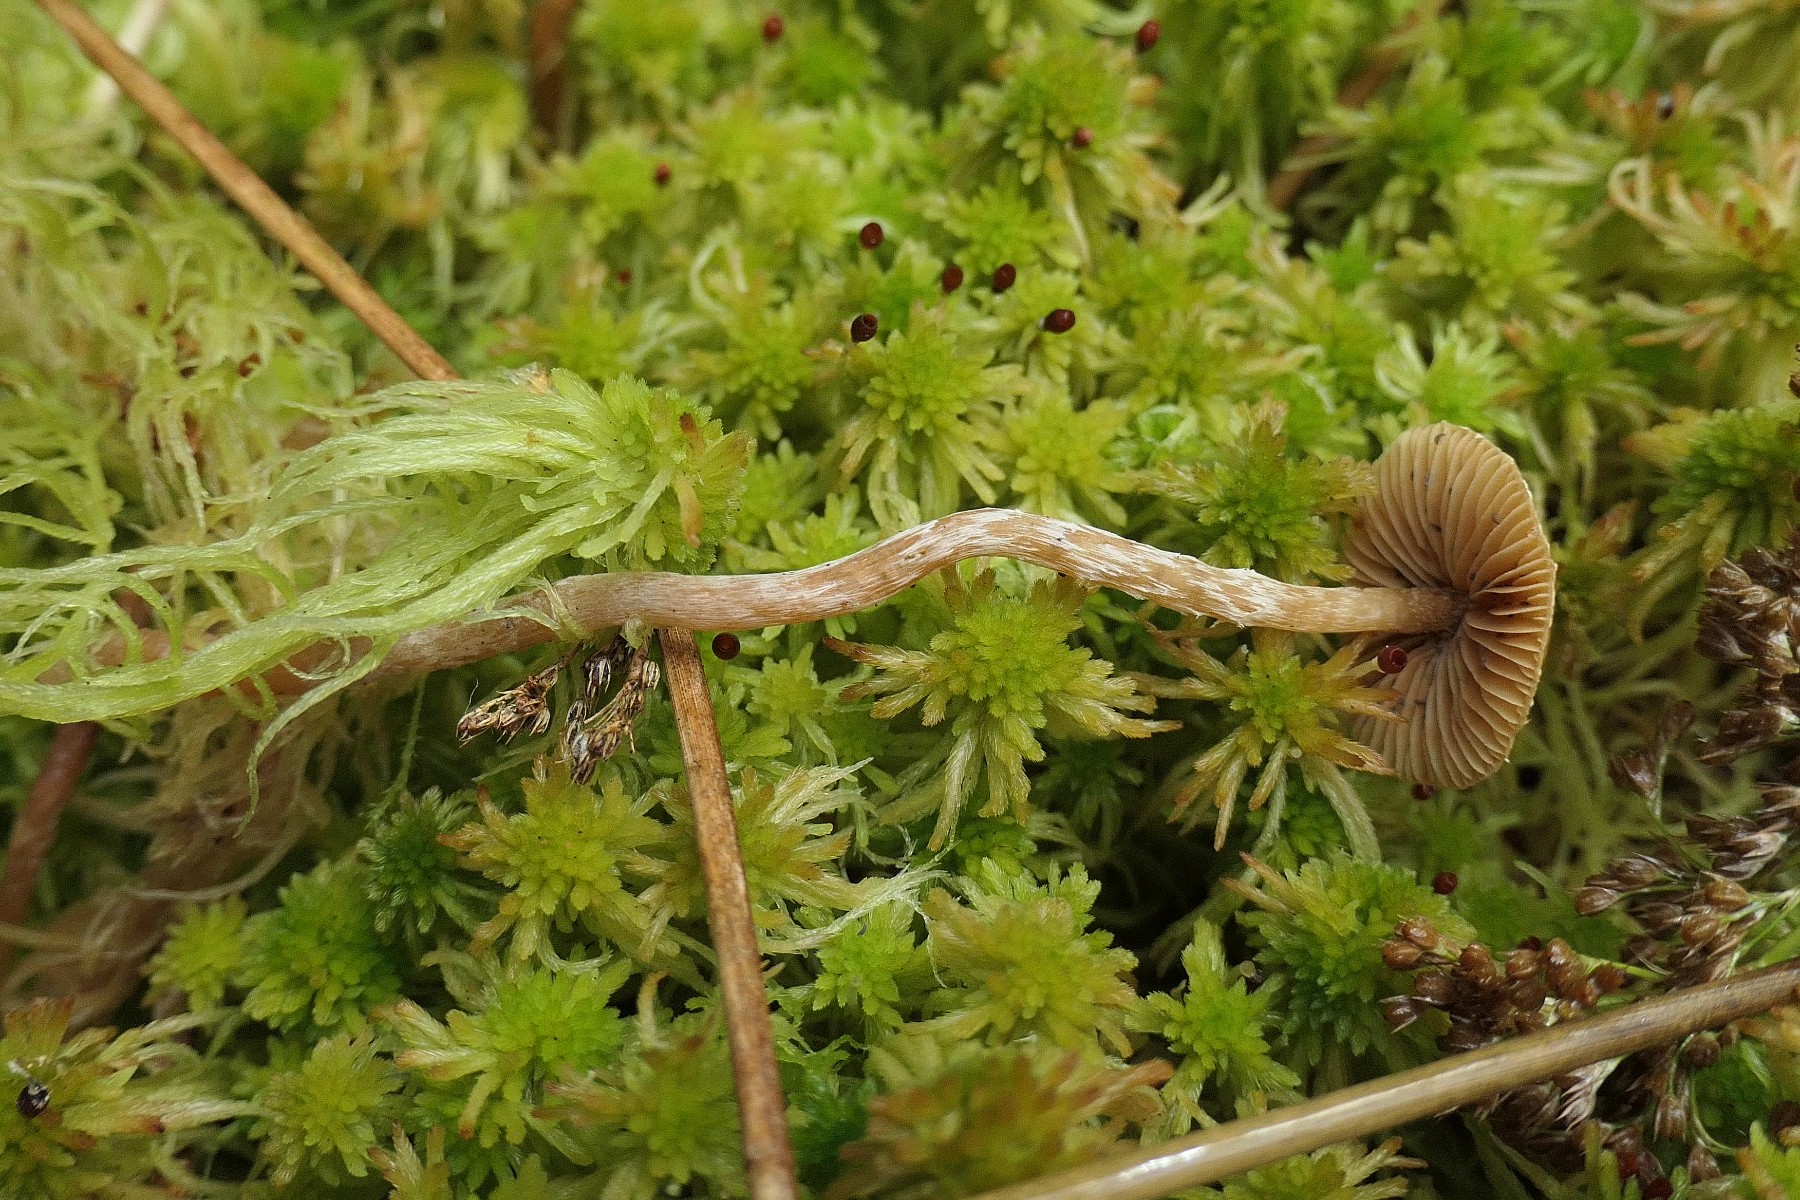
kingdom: Fungi
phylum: Basidiomycota
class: Agaricomycetes
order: Agaricales
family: Hymenogastraceae
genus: Galerina
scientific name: Galerina paludosa
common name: mose-hjelmhat
